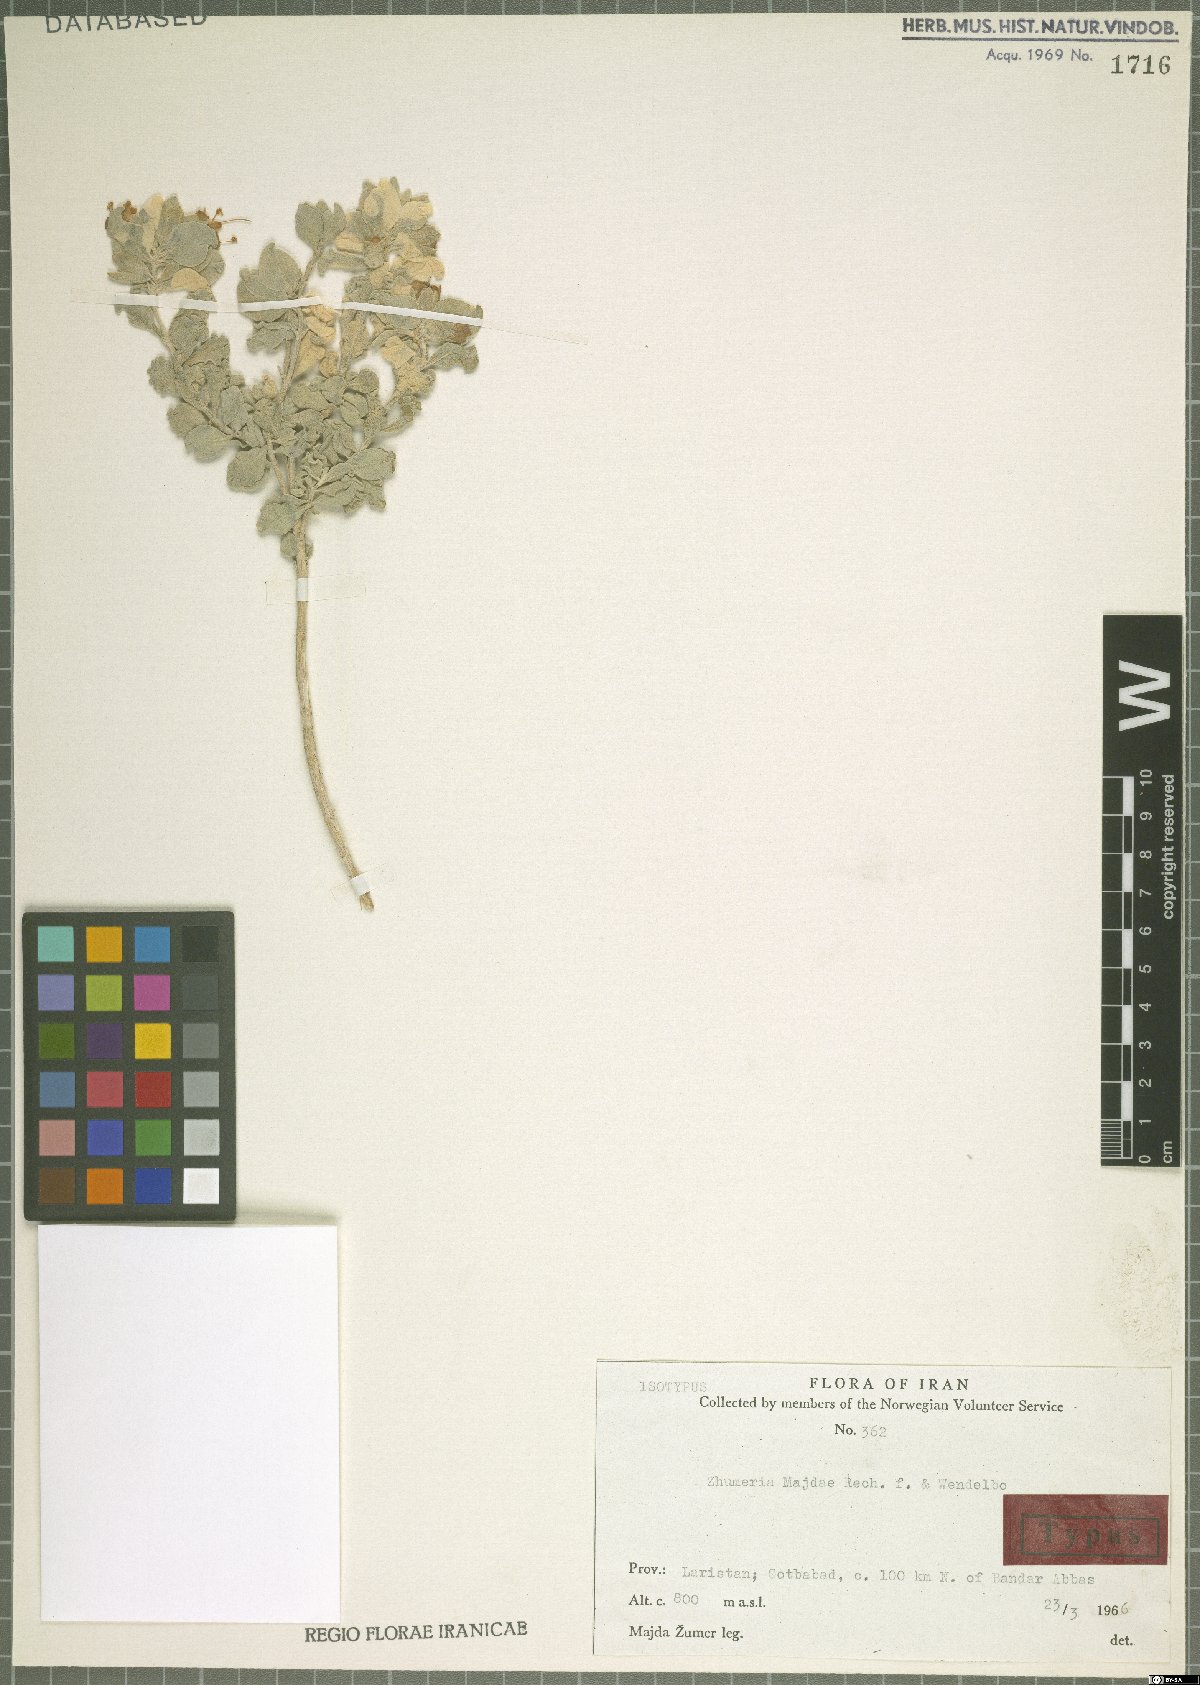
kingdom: Plantae
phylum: Tracheophyta
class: Magnoliopsida
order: Lamiales
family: Lamiaceae
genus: Salvia
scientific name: Salvia majdae
